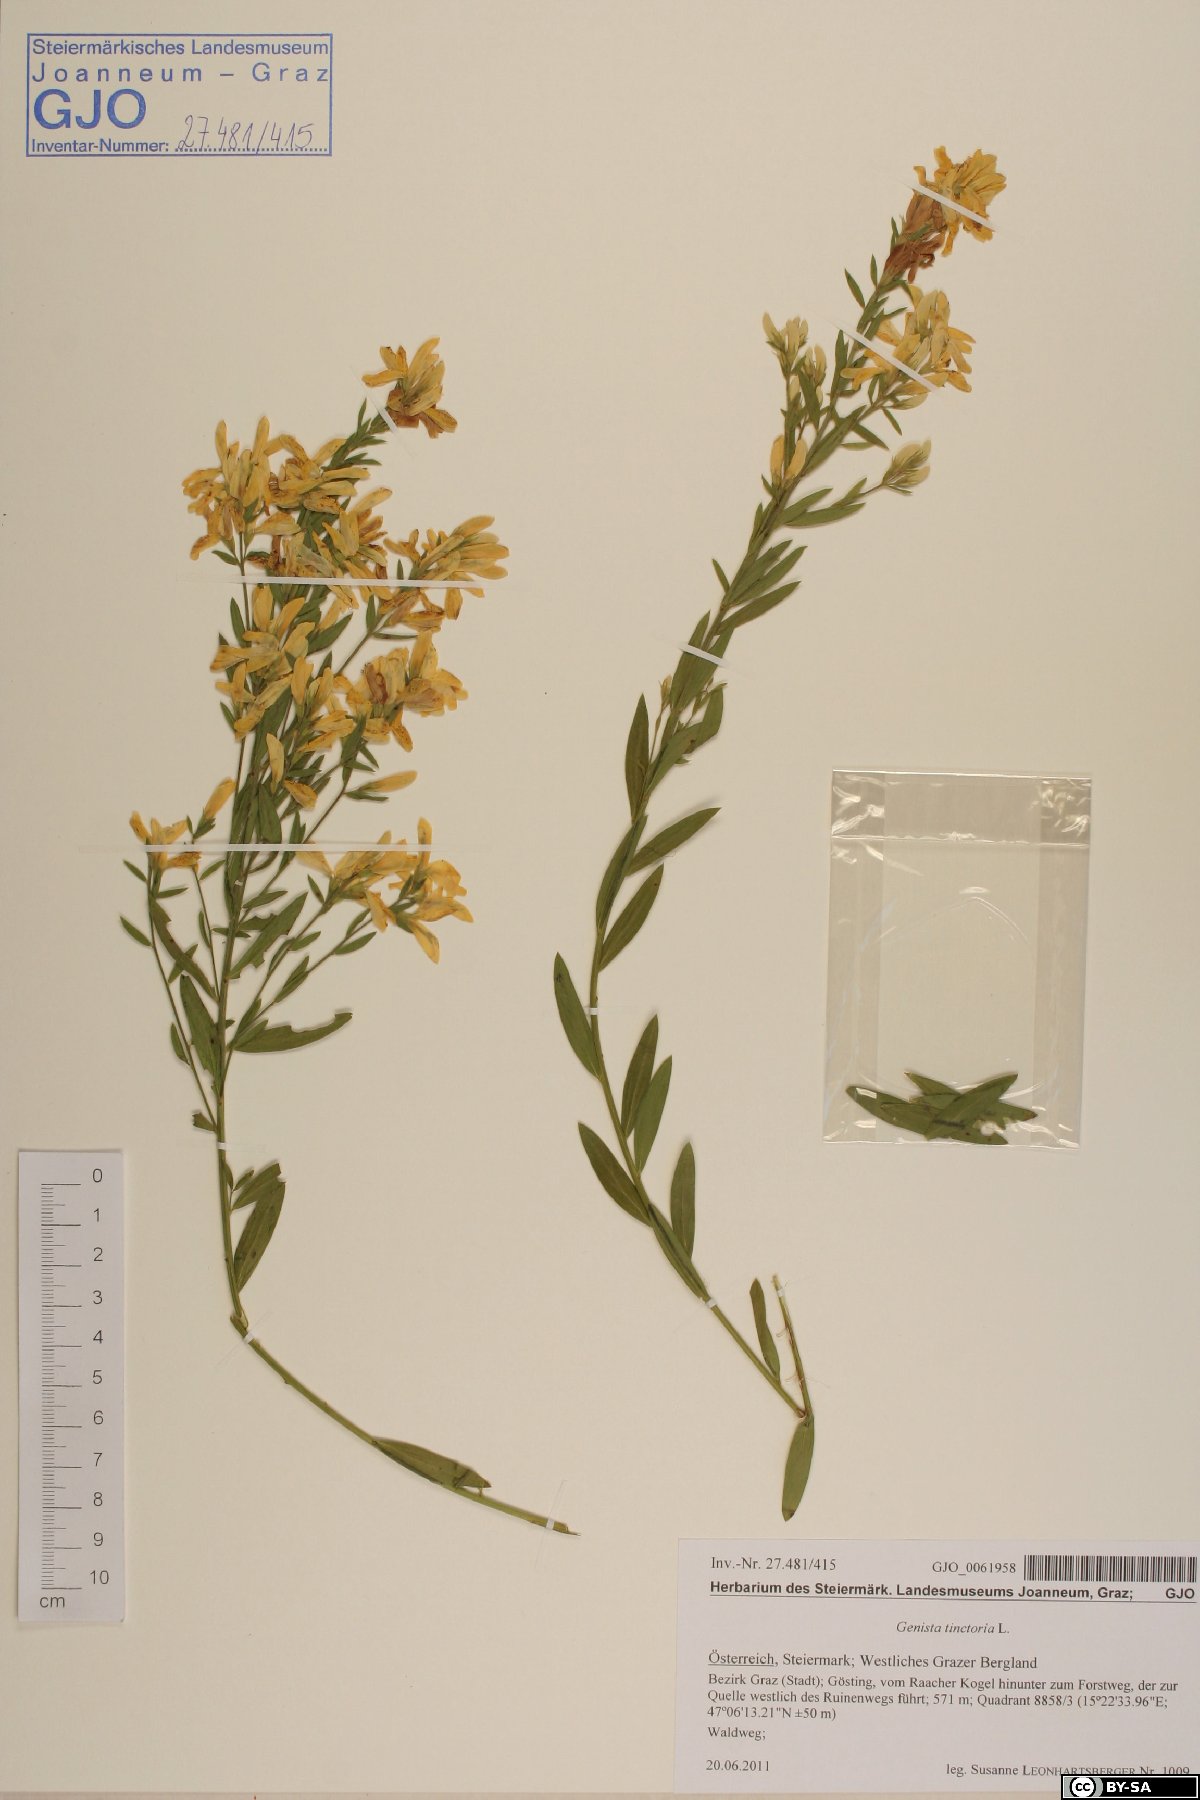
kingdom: Plantae
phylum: Tracheophyta
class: Magnoliopsida
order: Fabales
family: Fabaceae
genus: Genista
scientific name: Genista tinctoria
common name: Dyer's greenweed
